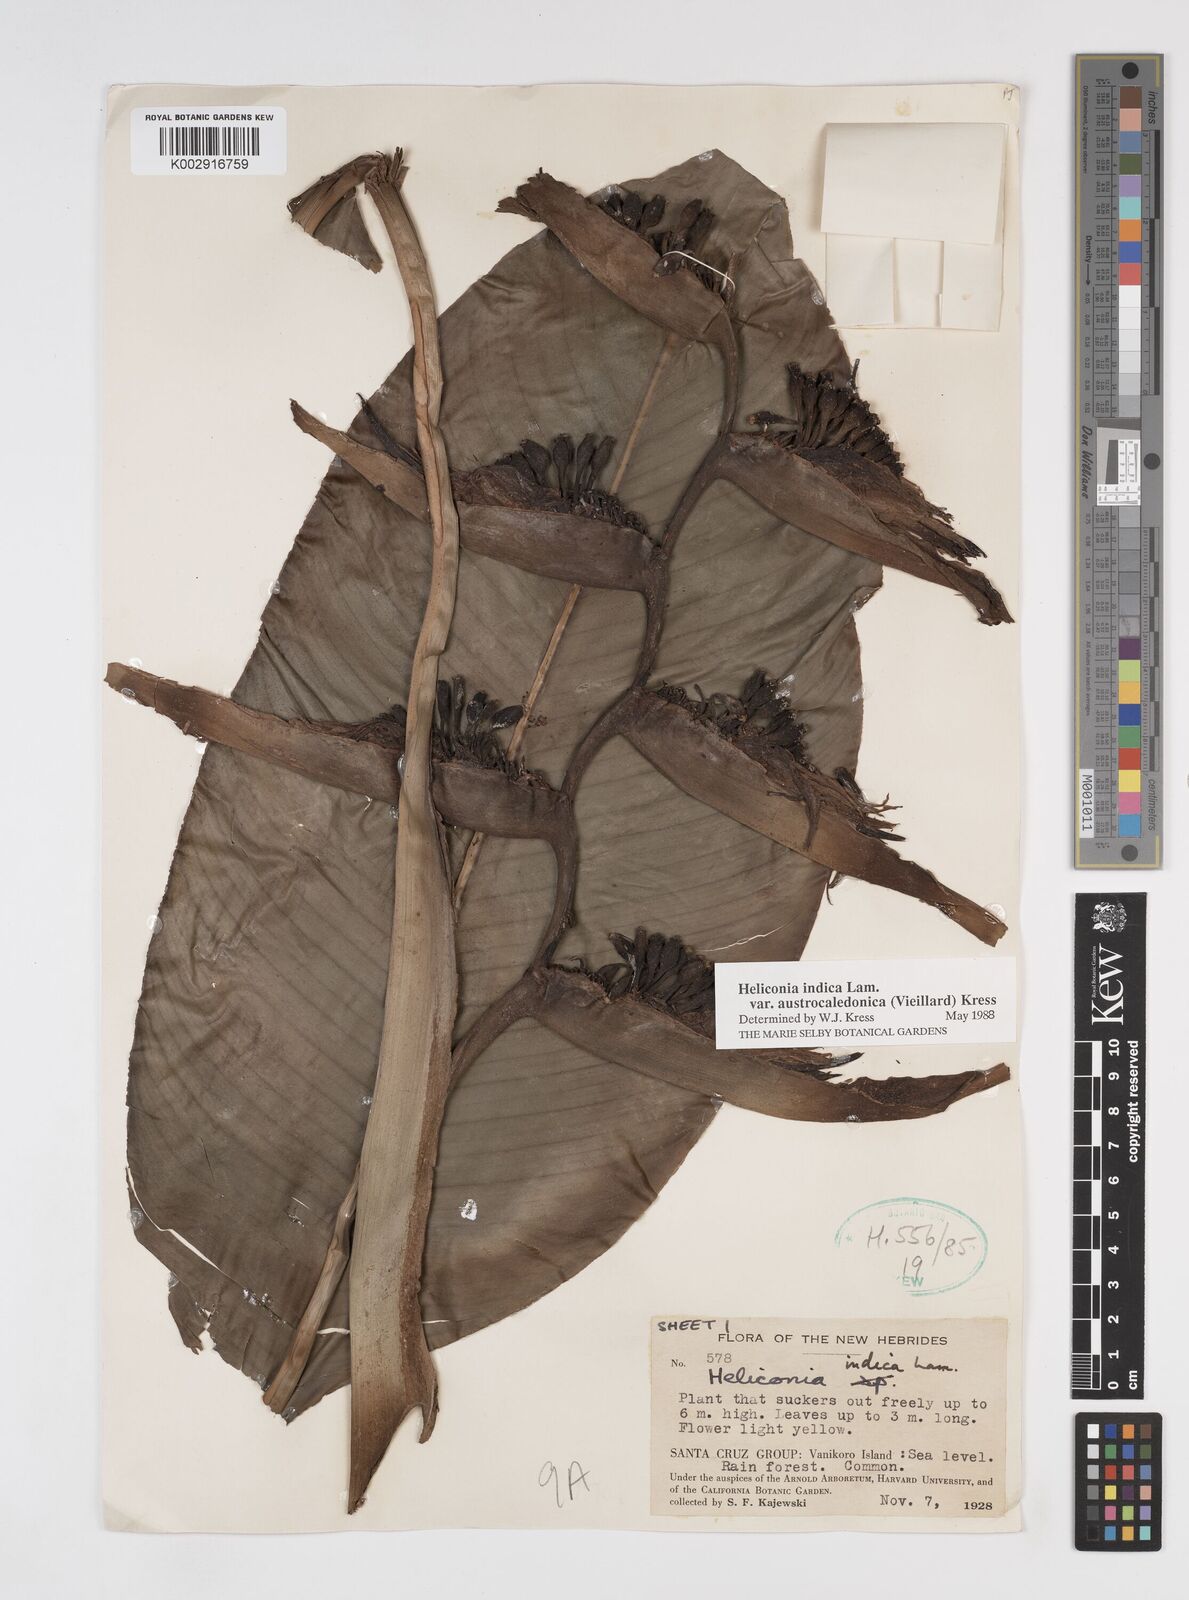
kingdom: Plantae
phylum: Tracheophyta
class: Liliopsida
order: Zingiberales
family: Heliconiaceae
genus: Heliconia
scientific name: Heliconia indica
